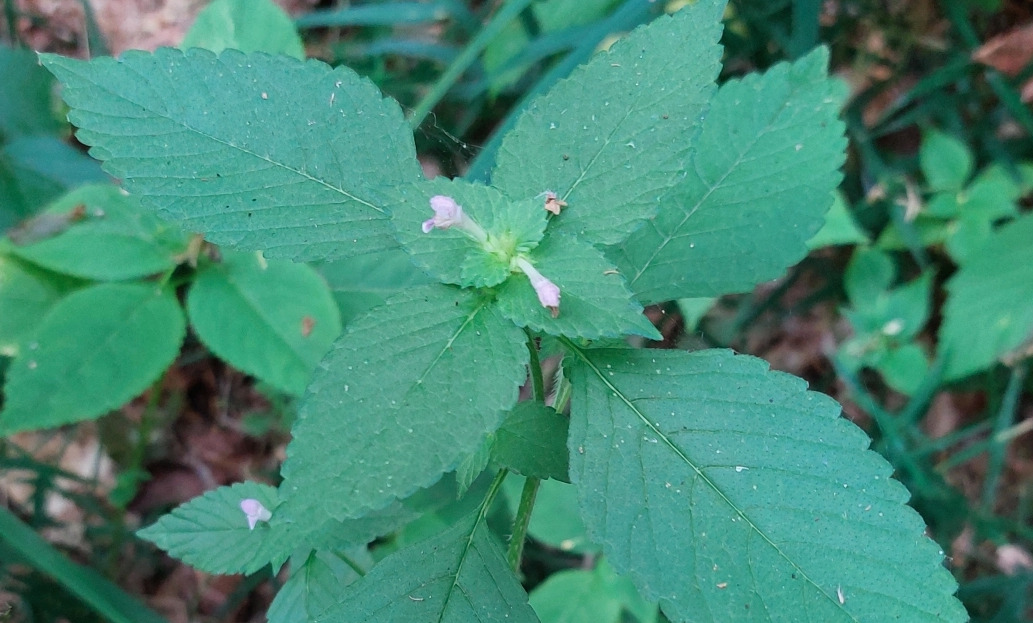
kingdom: Plantae
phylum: Tracheophyta
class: Magnoliopsida
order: Lamiales
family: Lamiaceae
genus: Galeopsis
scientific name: Galeopsis bifida
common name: Skov-hanekro
